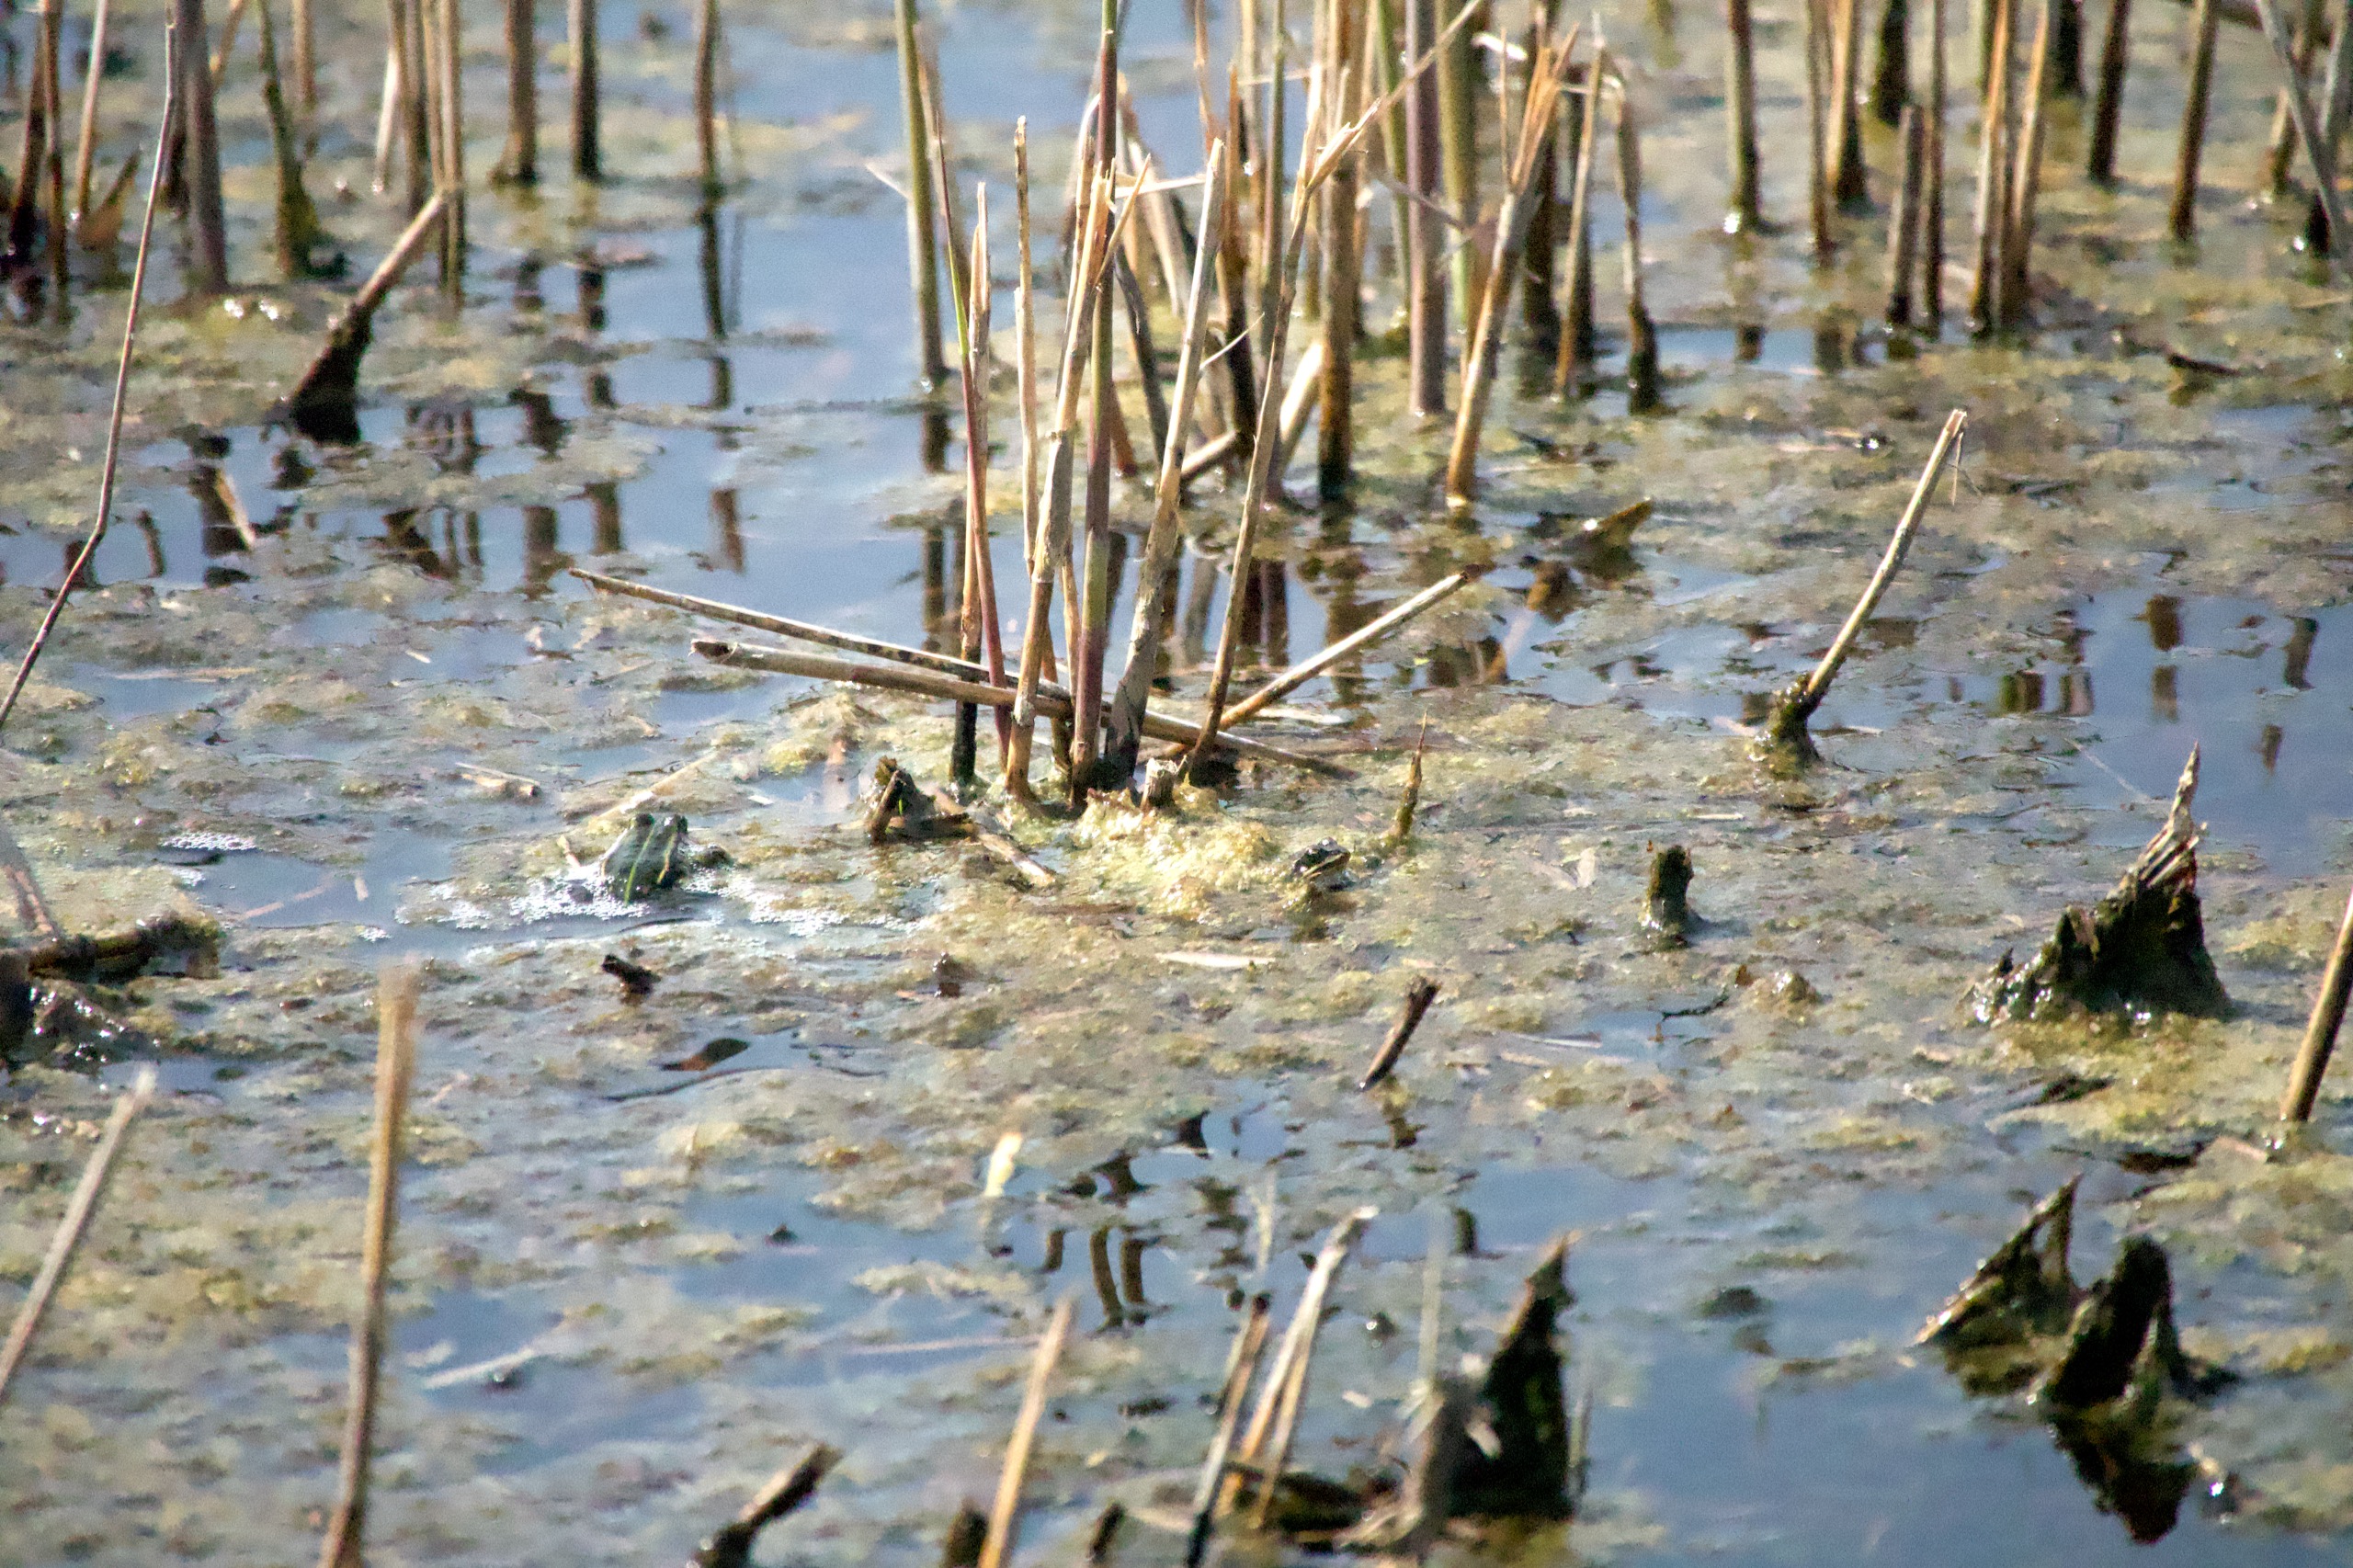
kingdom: Animalia
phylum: Chordata
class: Amphibia
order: Anura
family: Ranidae
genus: Pelophylax
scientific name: Pelophylax lessonae
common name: Grøn frø
